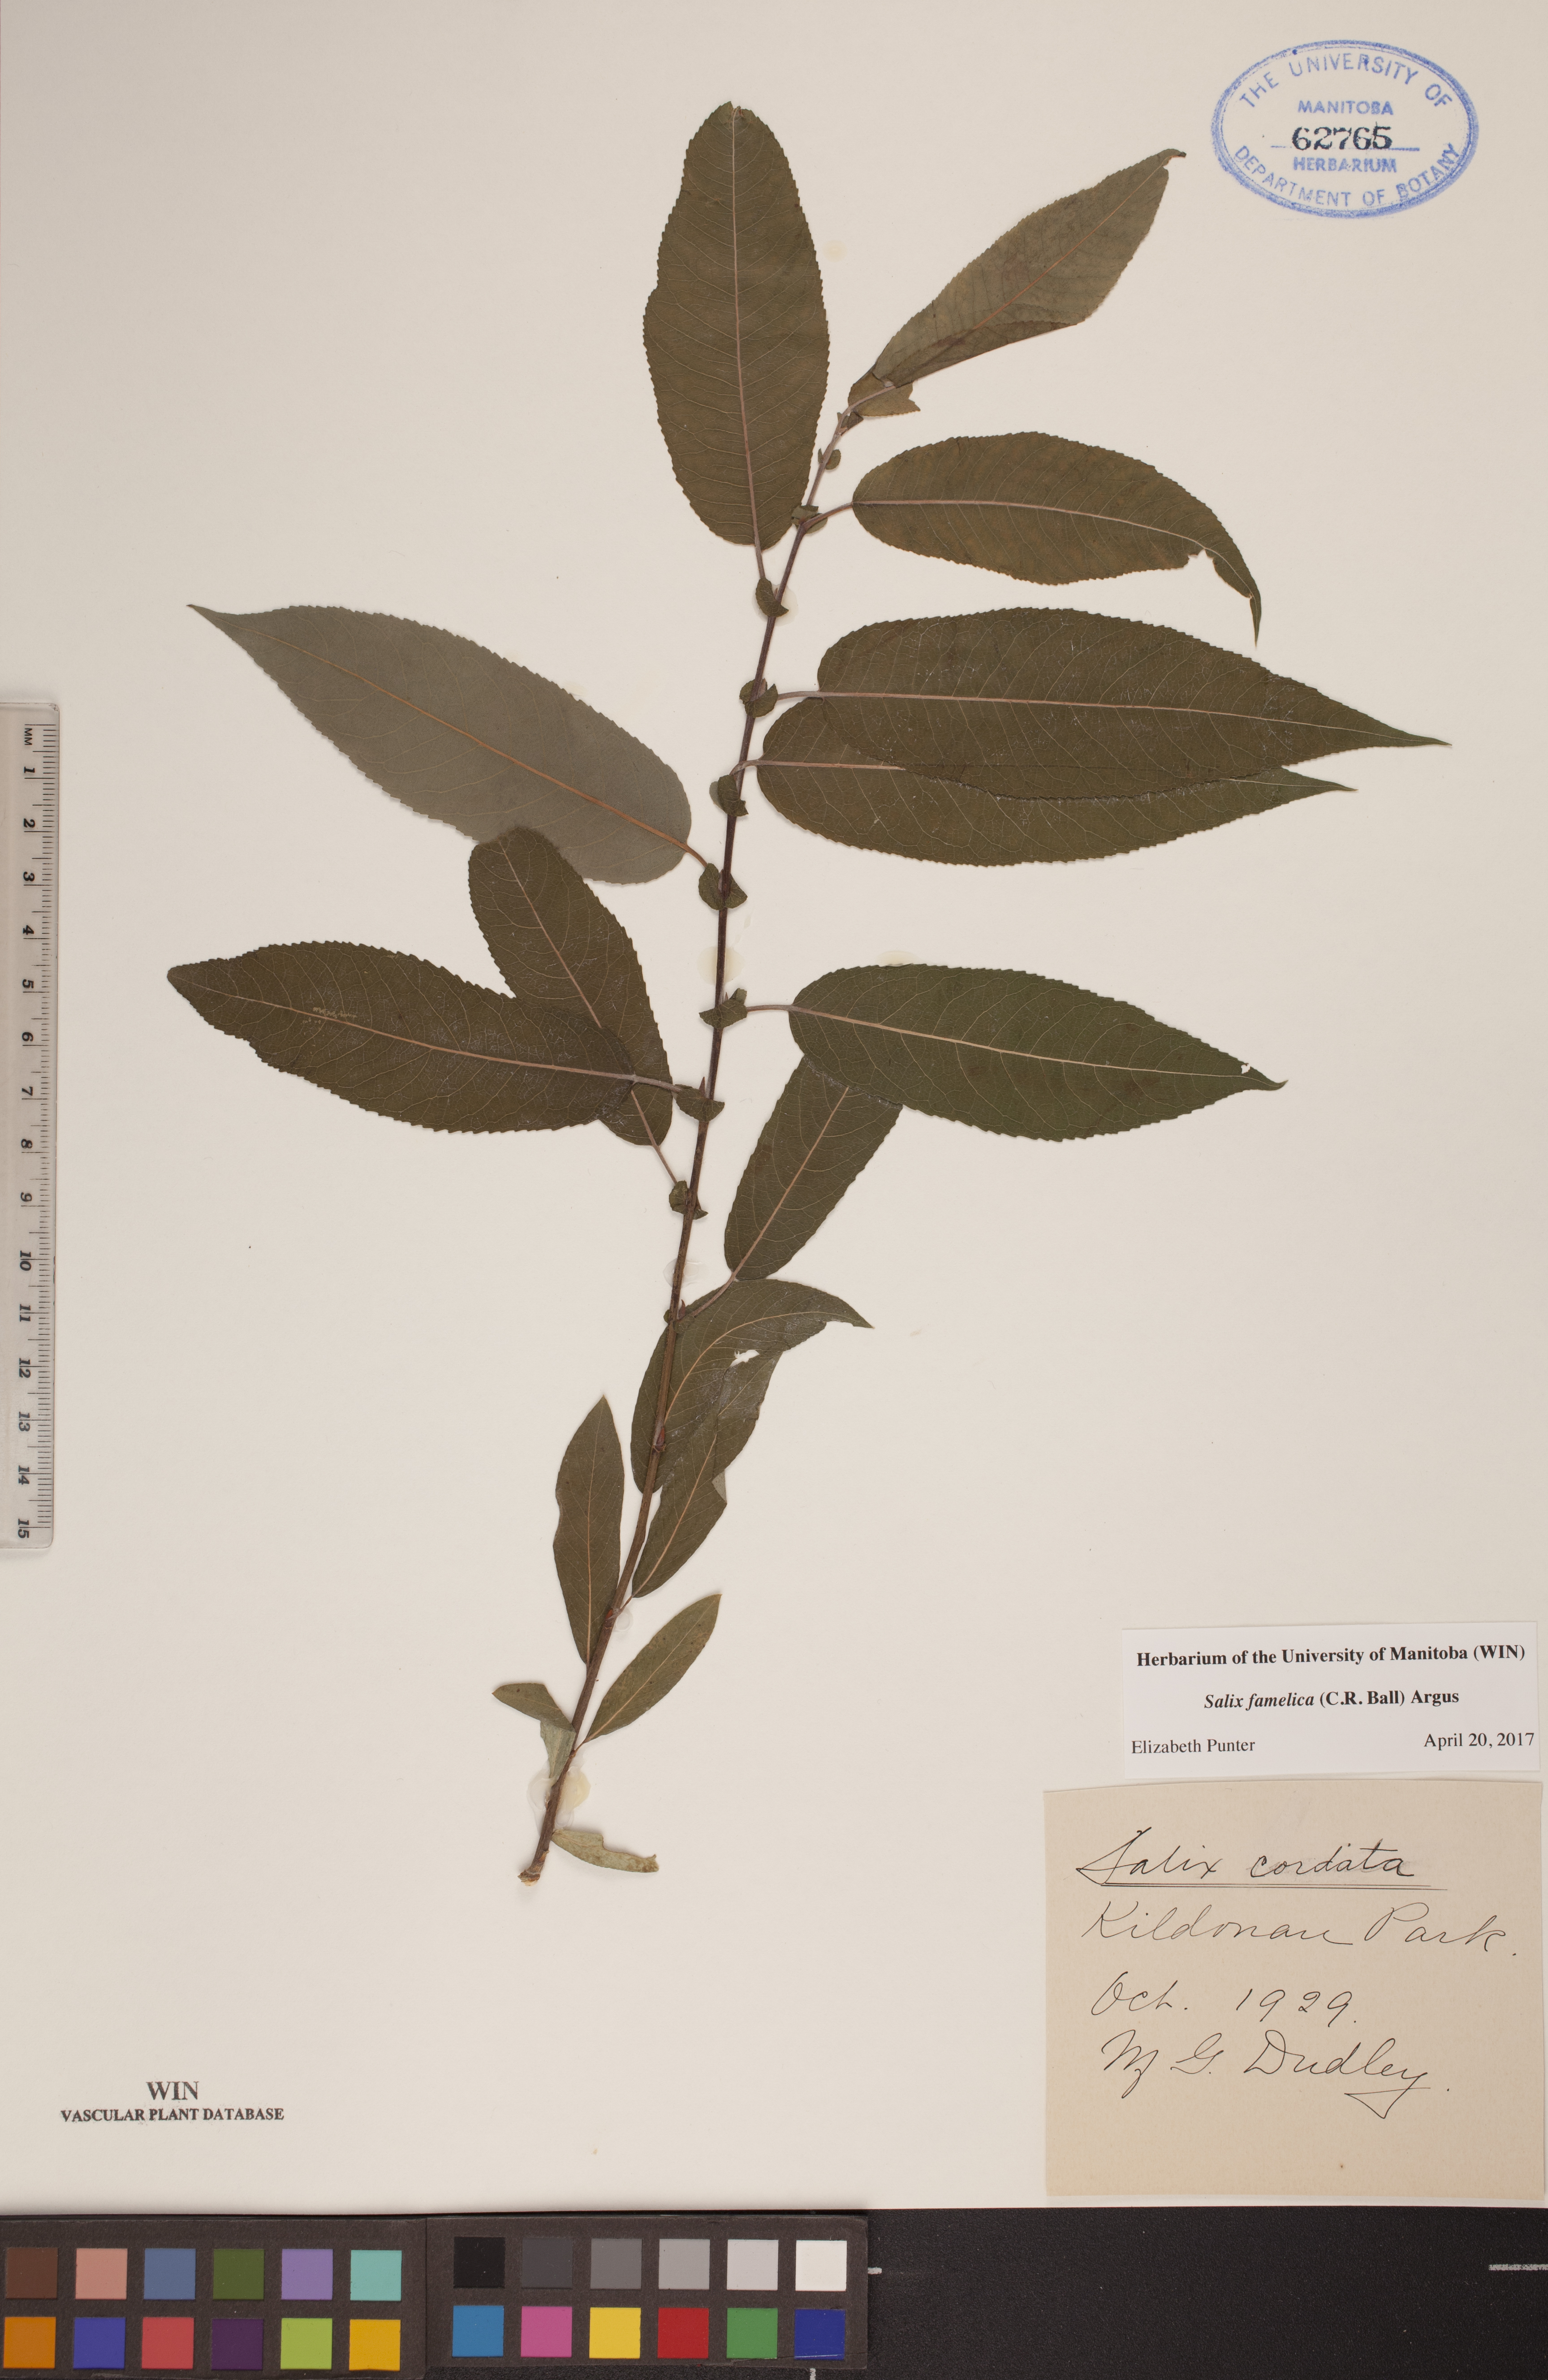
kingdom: Plantae
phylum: Tracheophyta
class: Magnoliopsida
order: Malpighiales
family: Salicaceae
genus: Salix
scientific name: Salix famelica
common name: Hungry willow
